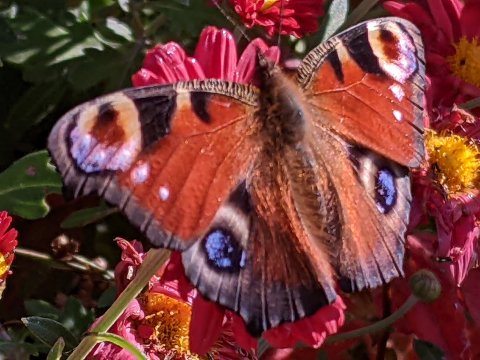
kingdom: Animalia
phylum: Arthropoda
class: Insecta
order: Lepidoptera
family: Nymphalidae
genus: Aglais
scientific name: Aglais io
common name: European Peacock
